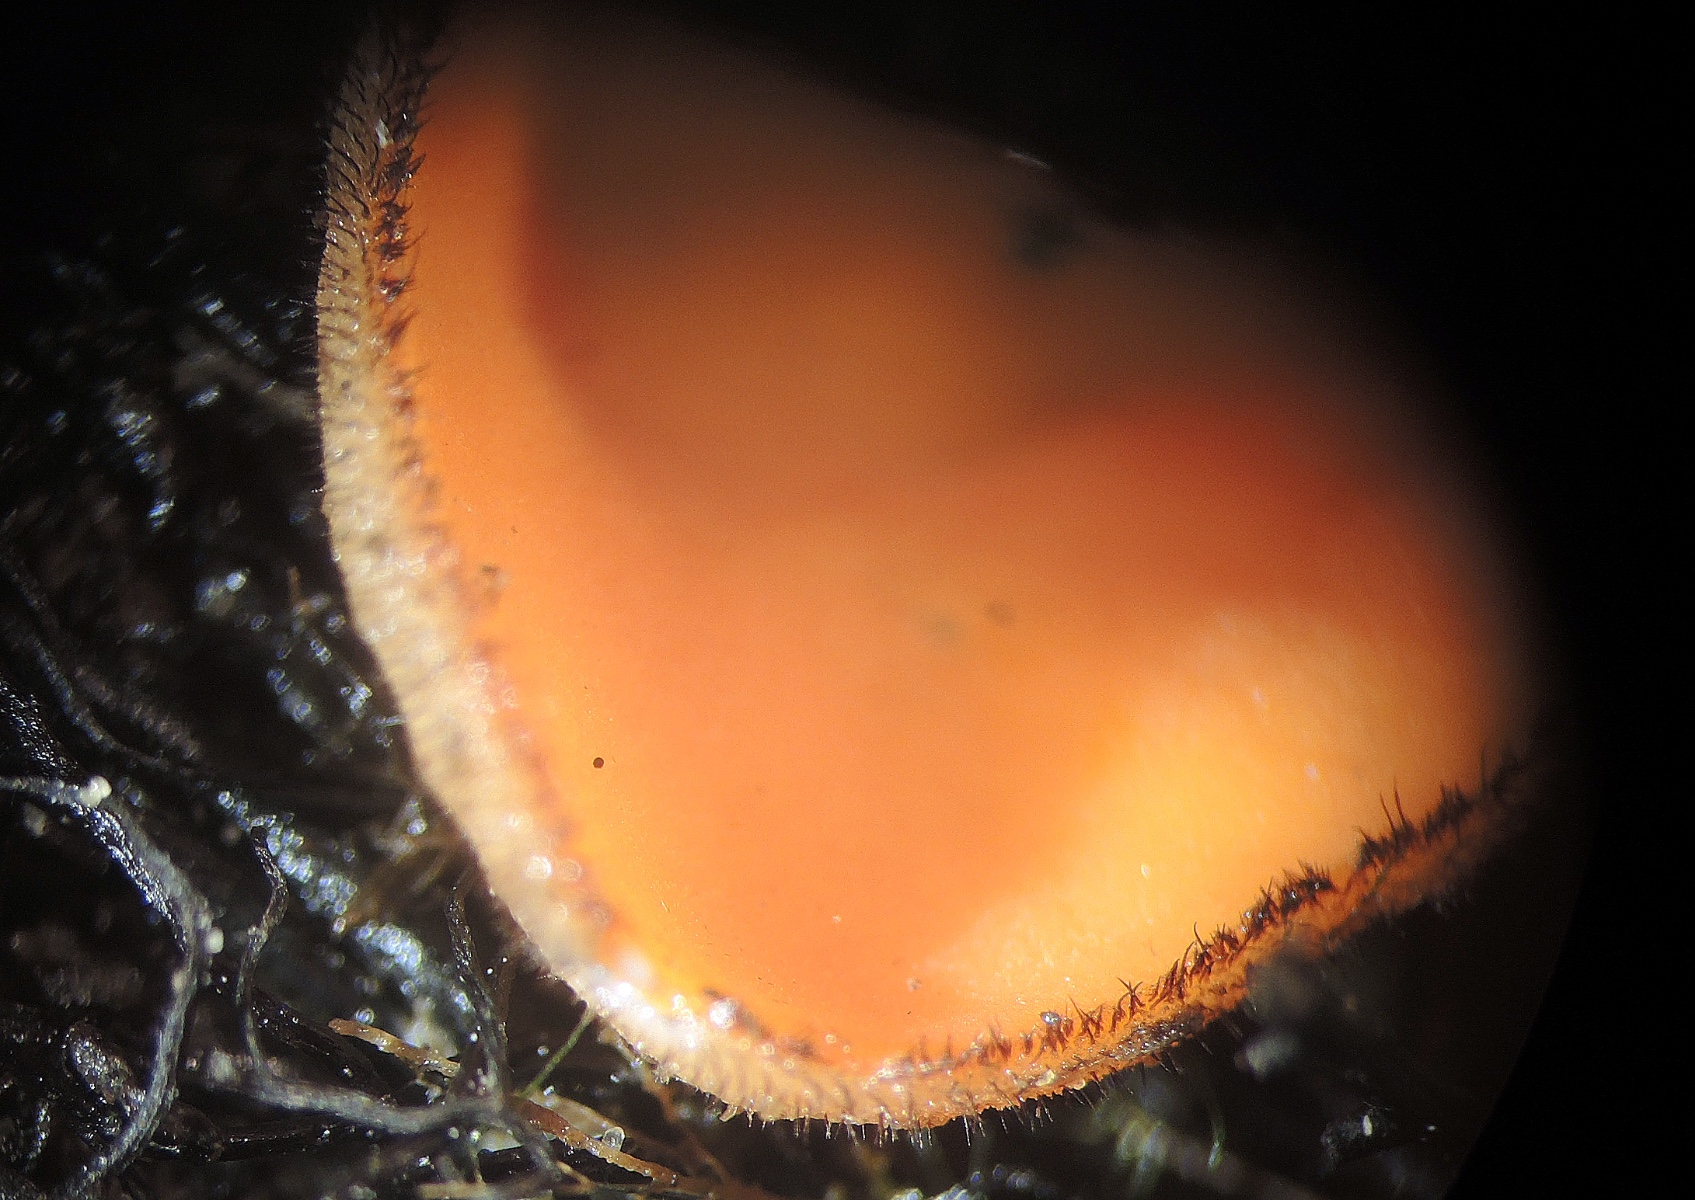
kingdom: Fungi
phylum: Ascomycota
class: Pezizomycetes
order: Pezizales
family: Pyronemataceae
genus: Scutellinia
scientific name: Scutellinia subhirtella
